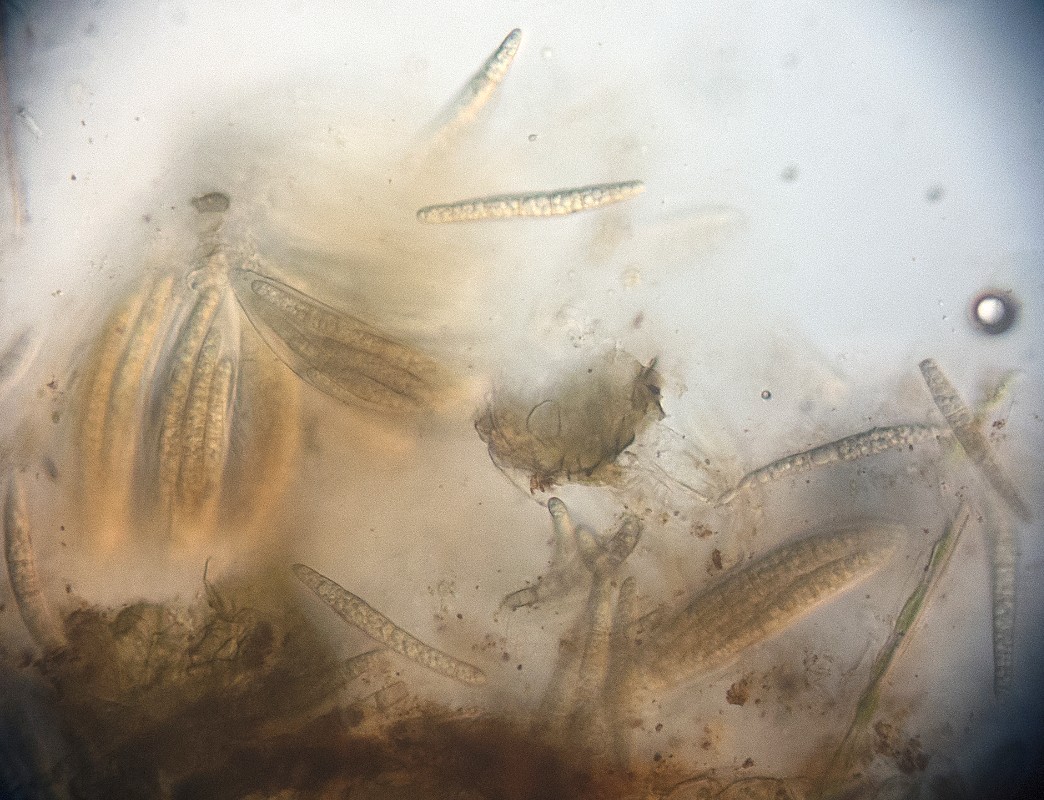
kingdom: Fungi
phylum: Ascomycota
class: Dothideomycetes
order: Pleosporales
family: Phaeosphaeriaceae
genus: Phaeosphaeria
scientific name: Phaeosphaeria sowerbyi
